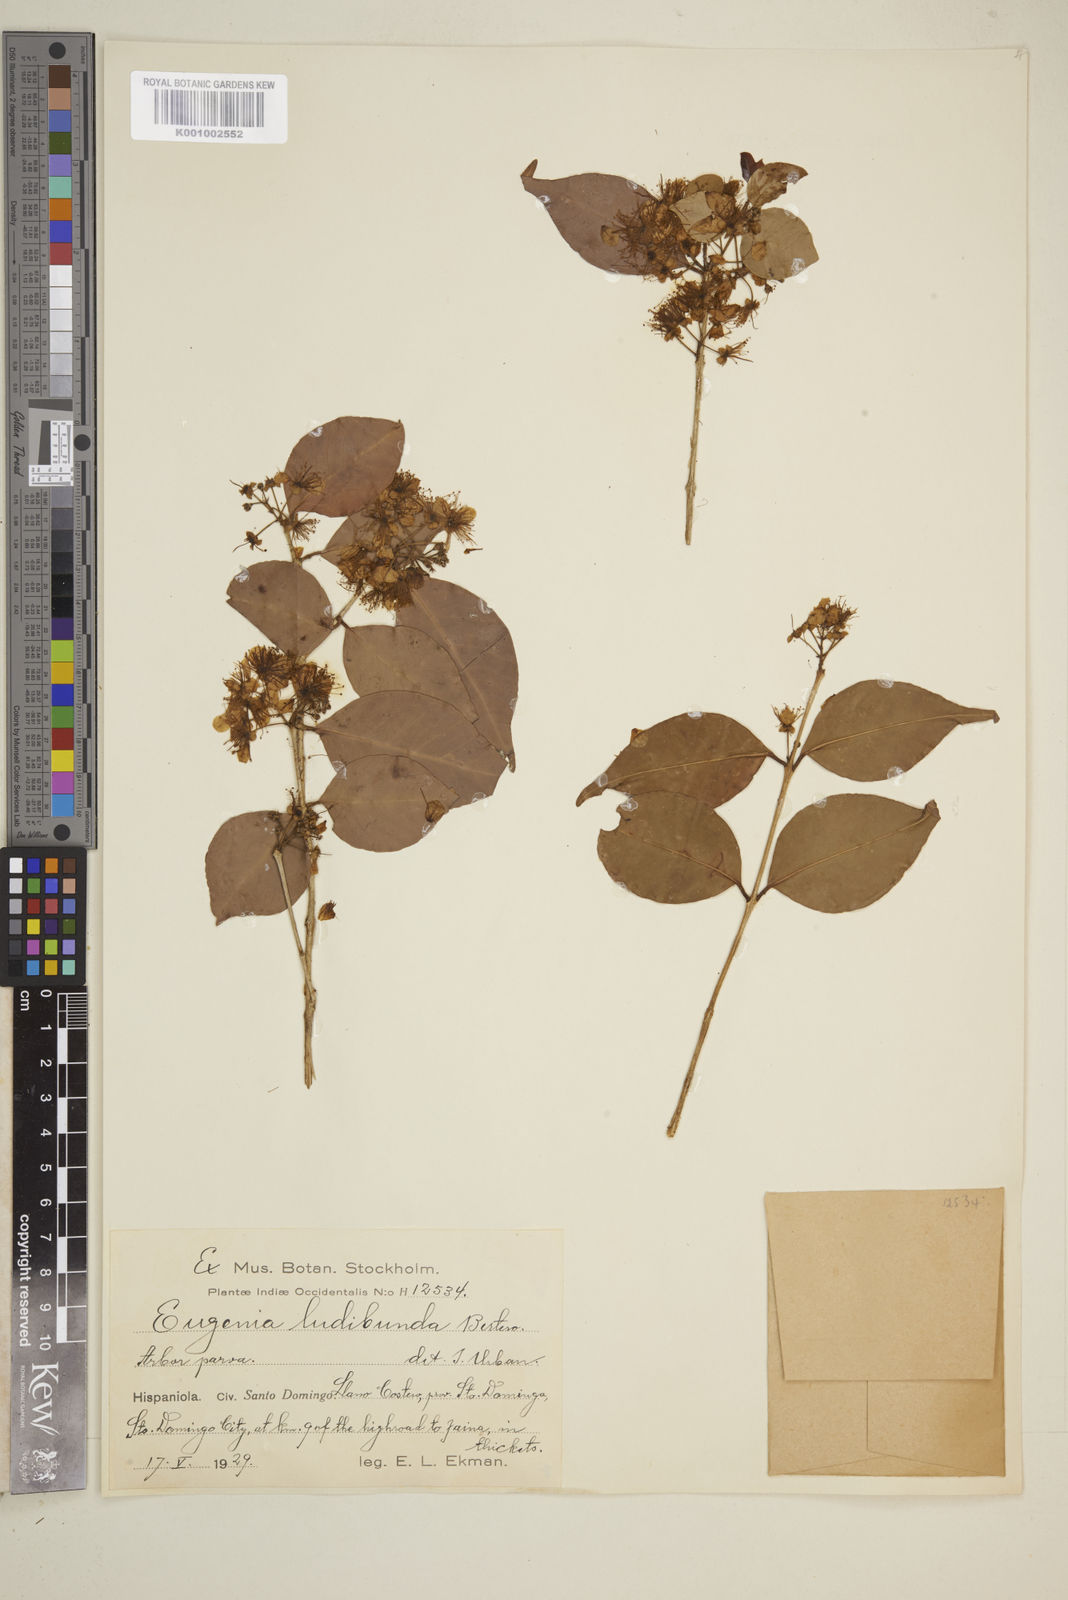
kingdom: Plantae
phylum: Tracheophyta
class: Magnoliopsida
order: Myrtales
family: Myrtaceae
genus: Eugenia
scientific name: Eugenia biflora
